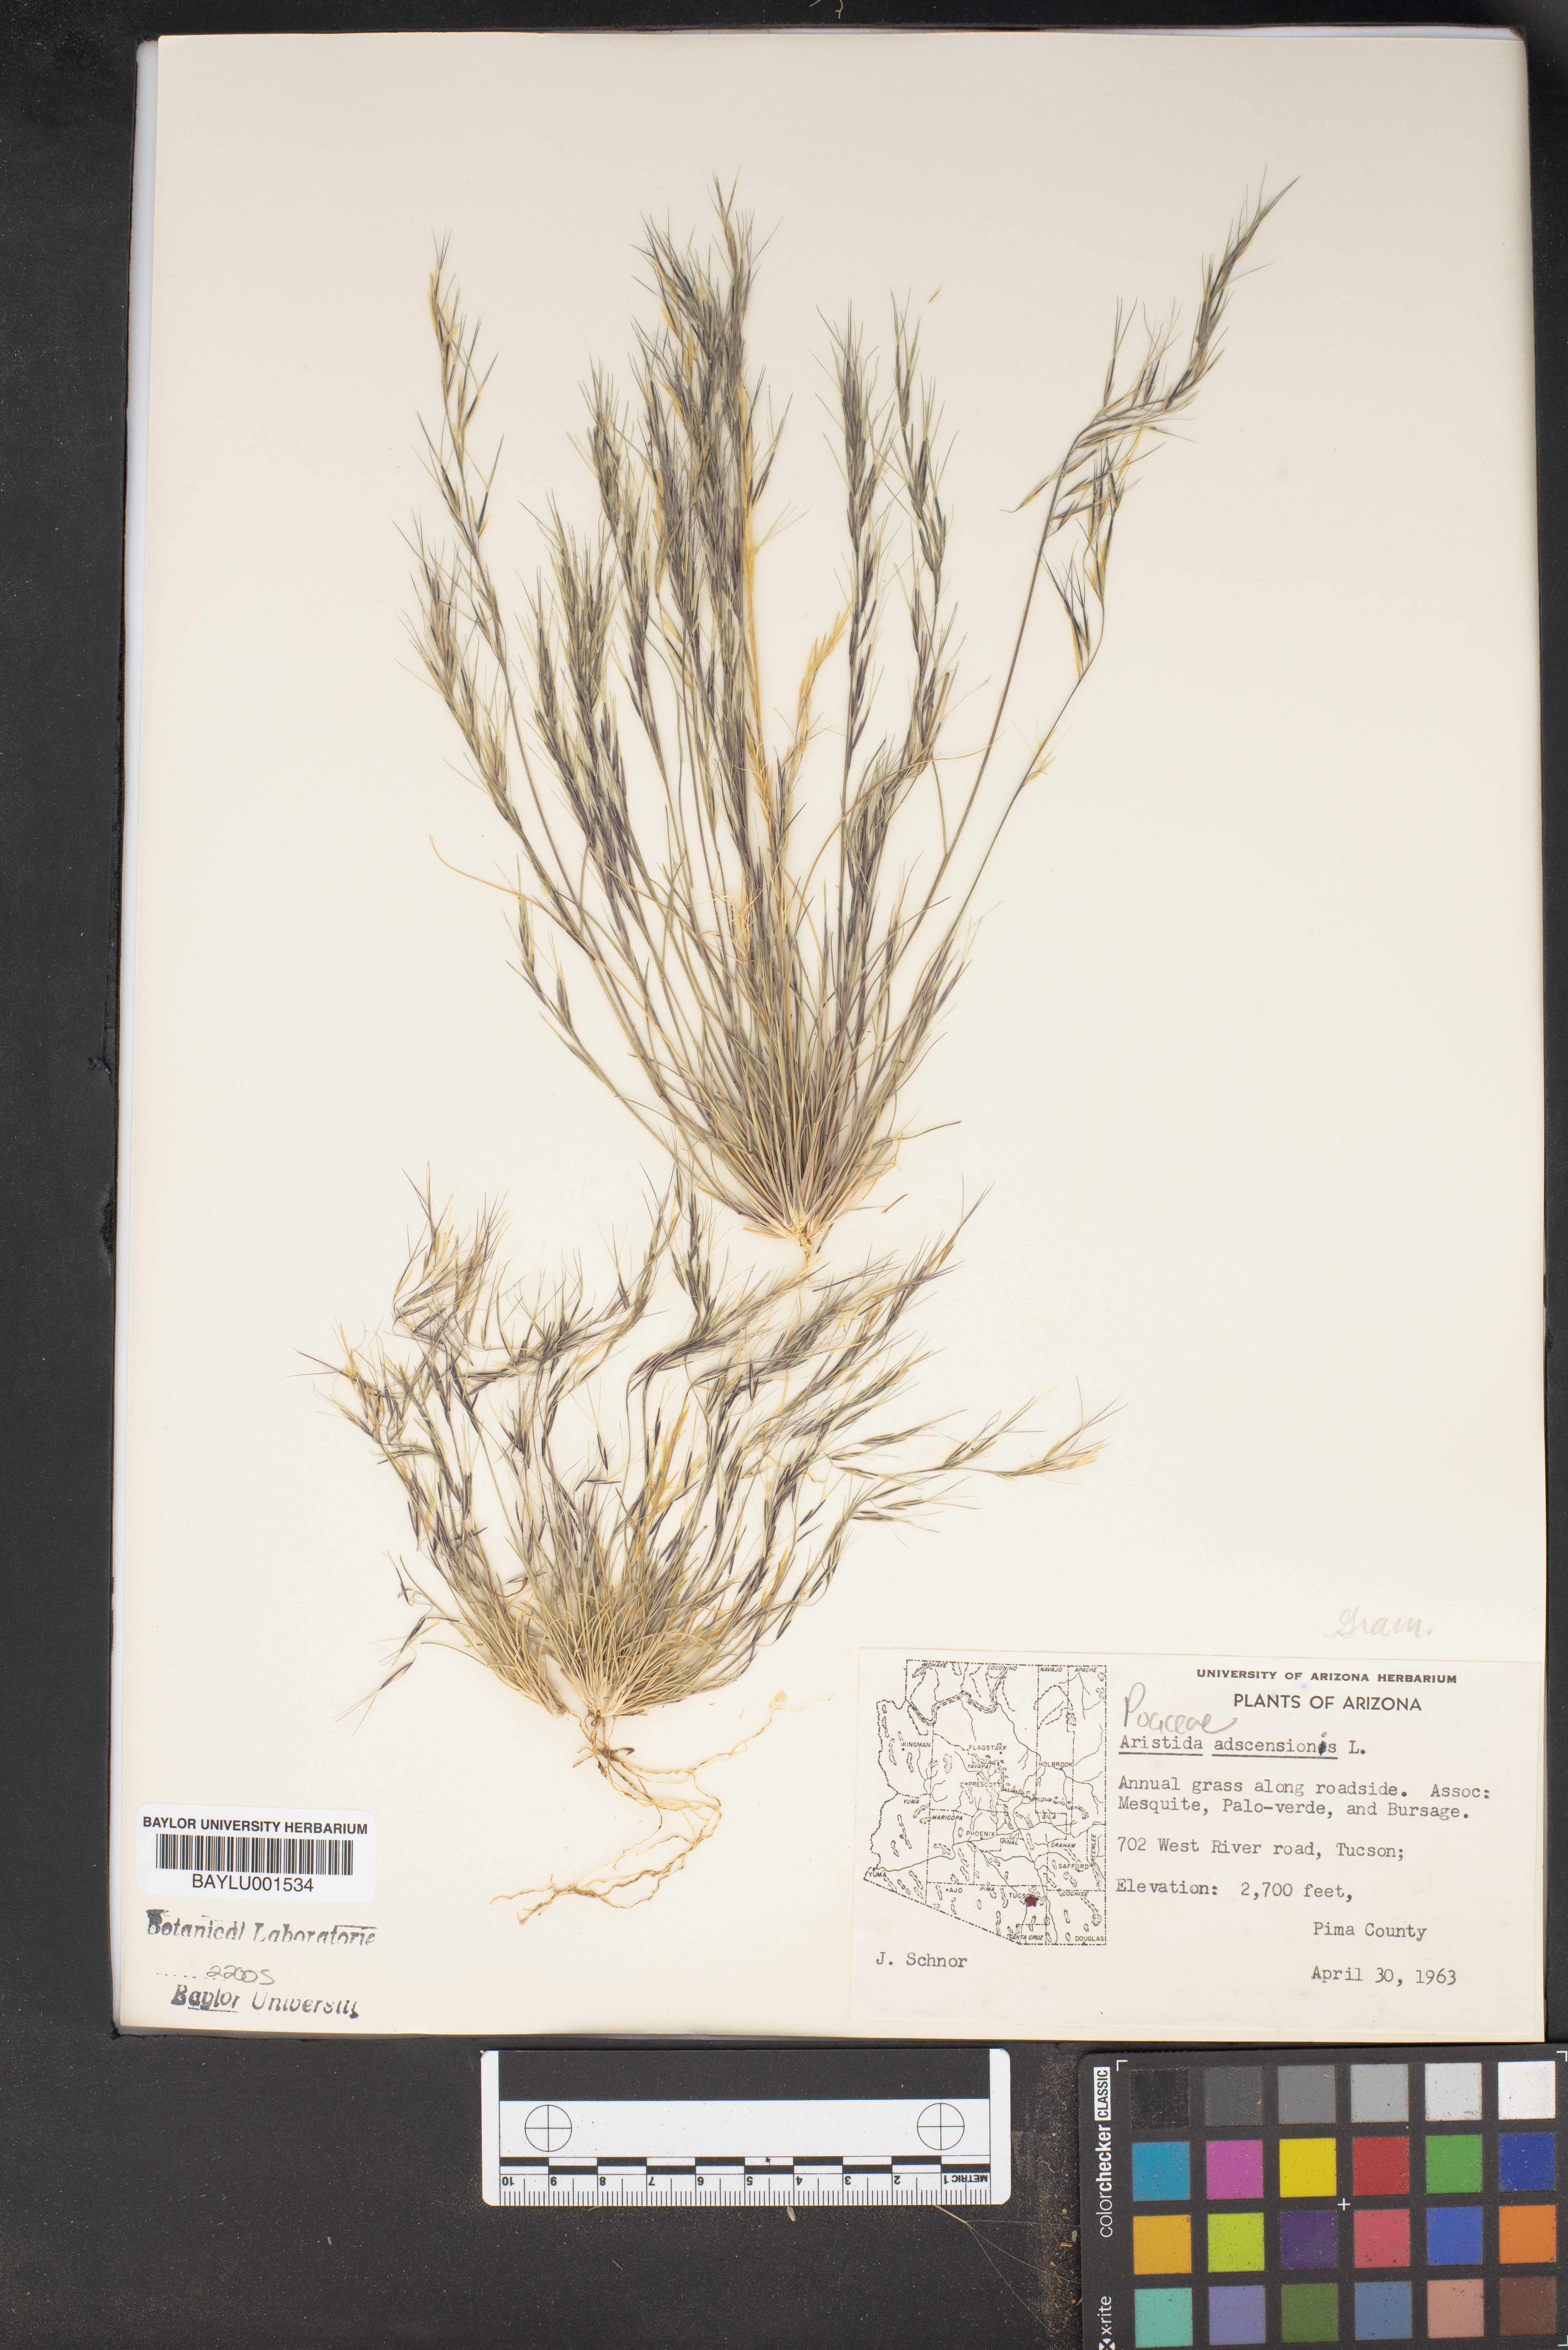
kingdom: Plantae
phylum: Tracheophyta
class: Liliopsida
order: Poales
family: Poaceae
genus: Aristida
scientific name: Aristida adscensionis
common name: Sixweeks threeawn
